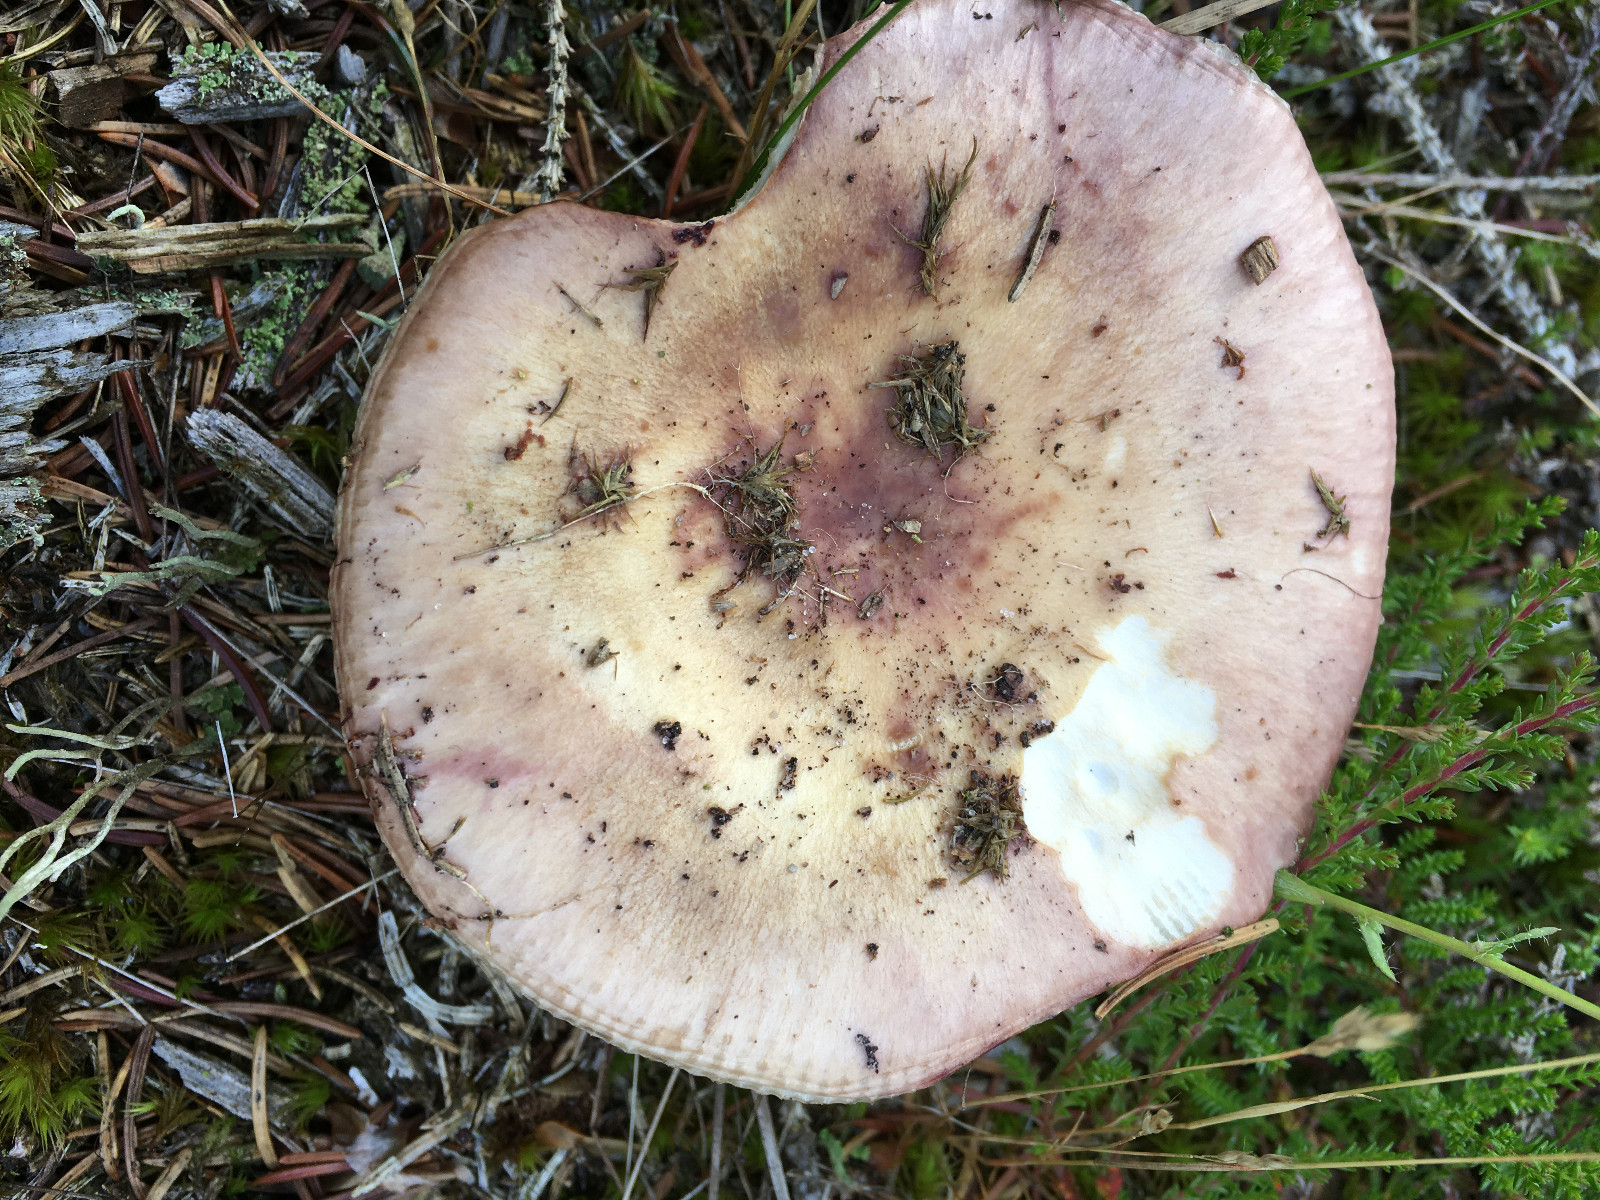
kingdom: Fungi
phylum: Basidiomycota
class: Agaricomycetes
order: Russulales
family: Russulaceae
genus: Russula
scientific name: Russula
